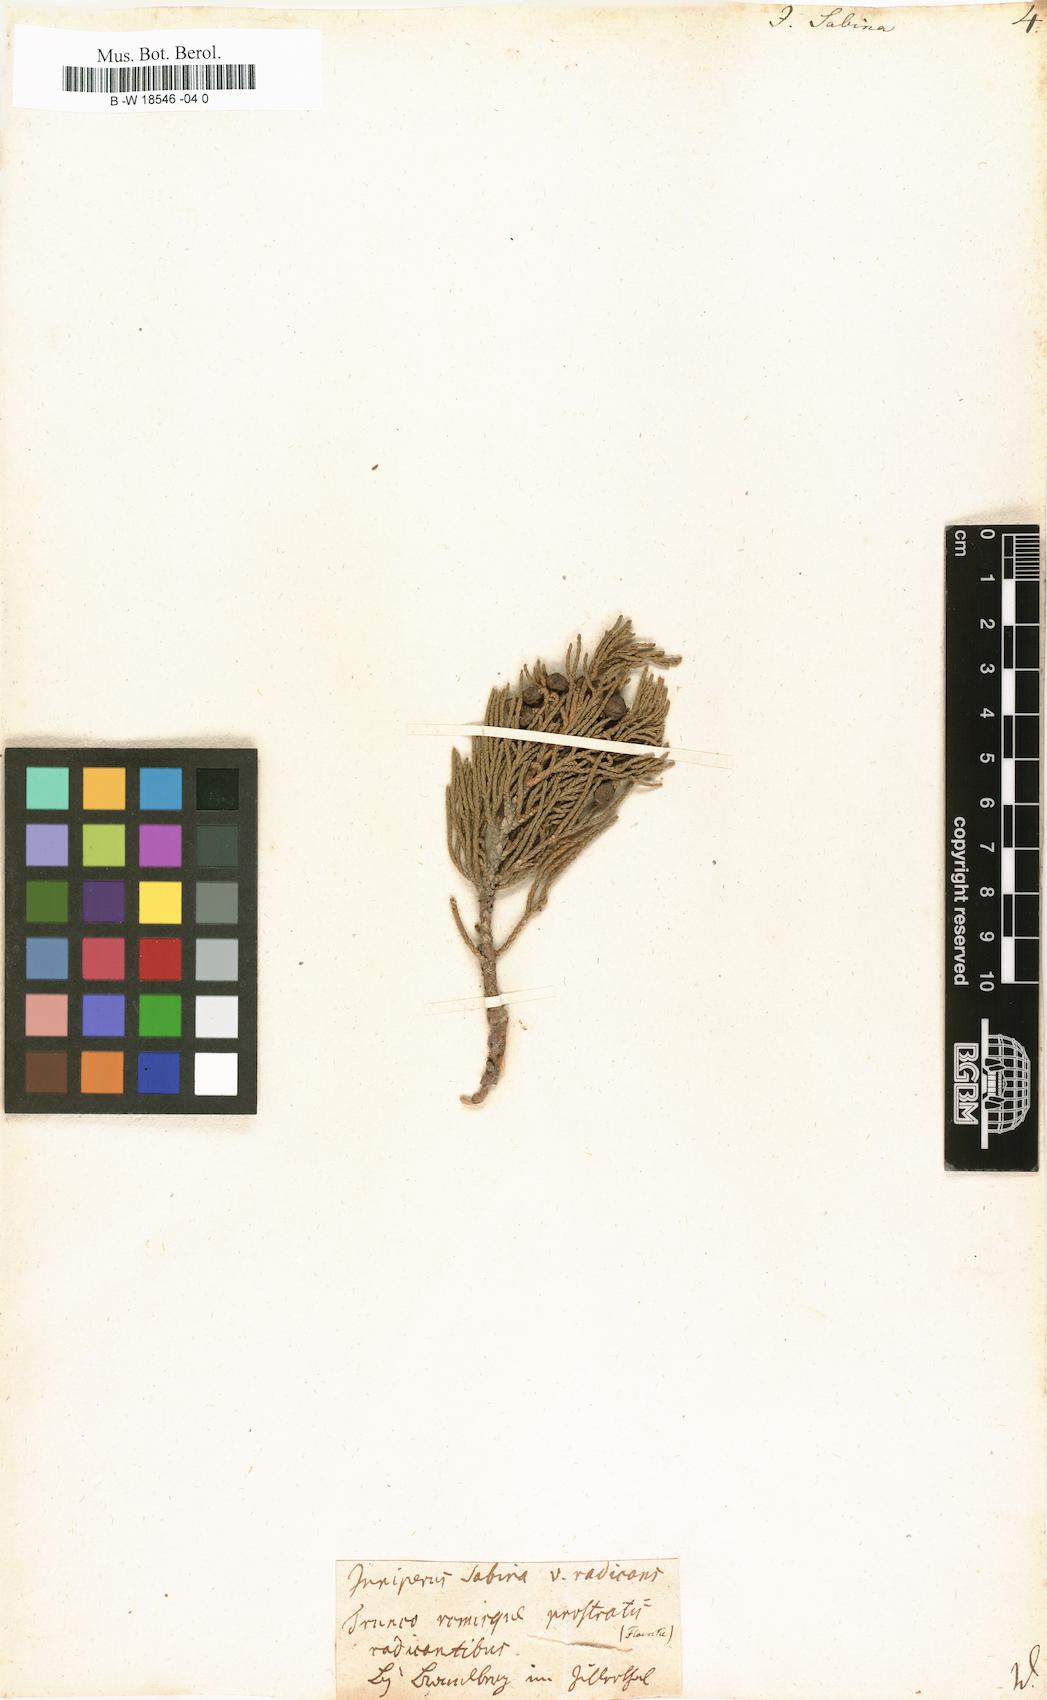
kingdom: Plantae
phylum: Tracheophyta
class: Pinopsida
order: Pinales
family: Cupressaceae
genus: Juniperus
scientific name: Juniperus sabina
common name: Savin
